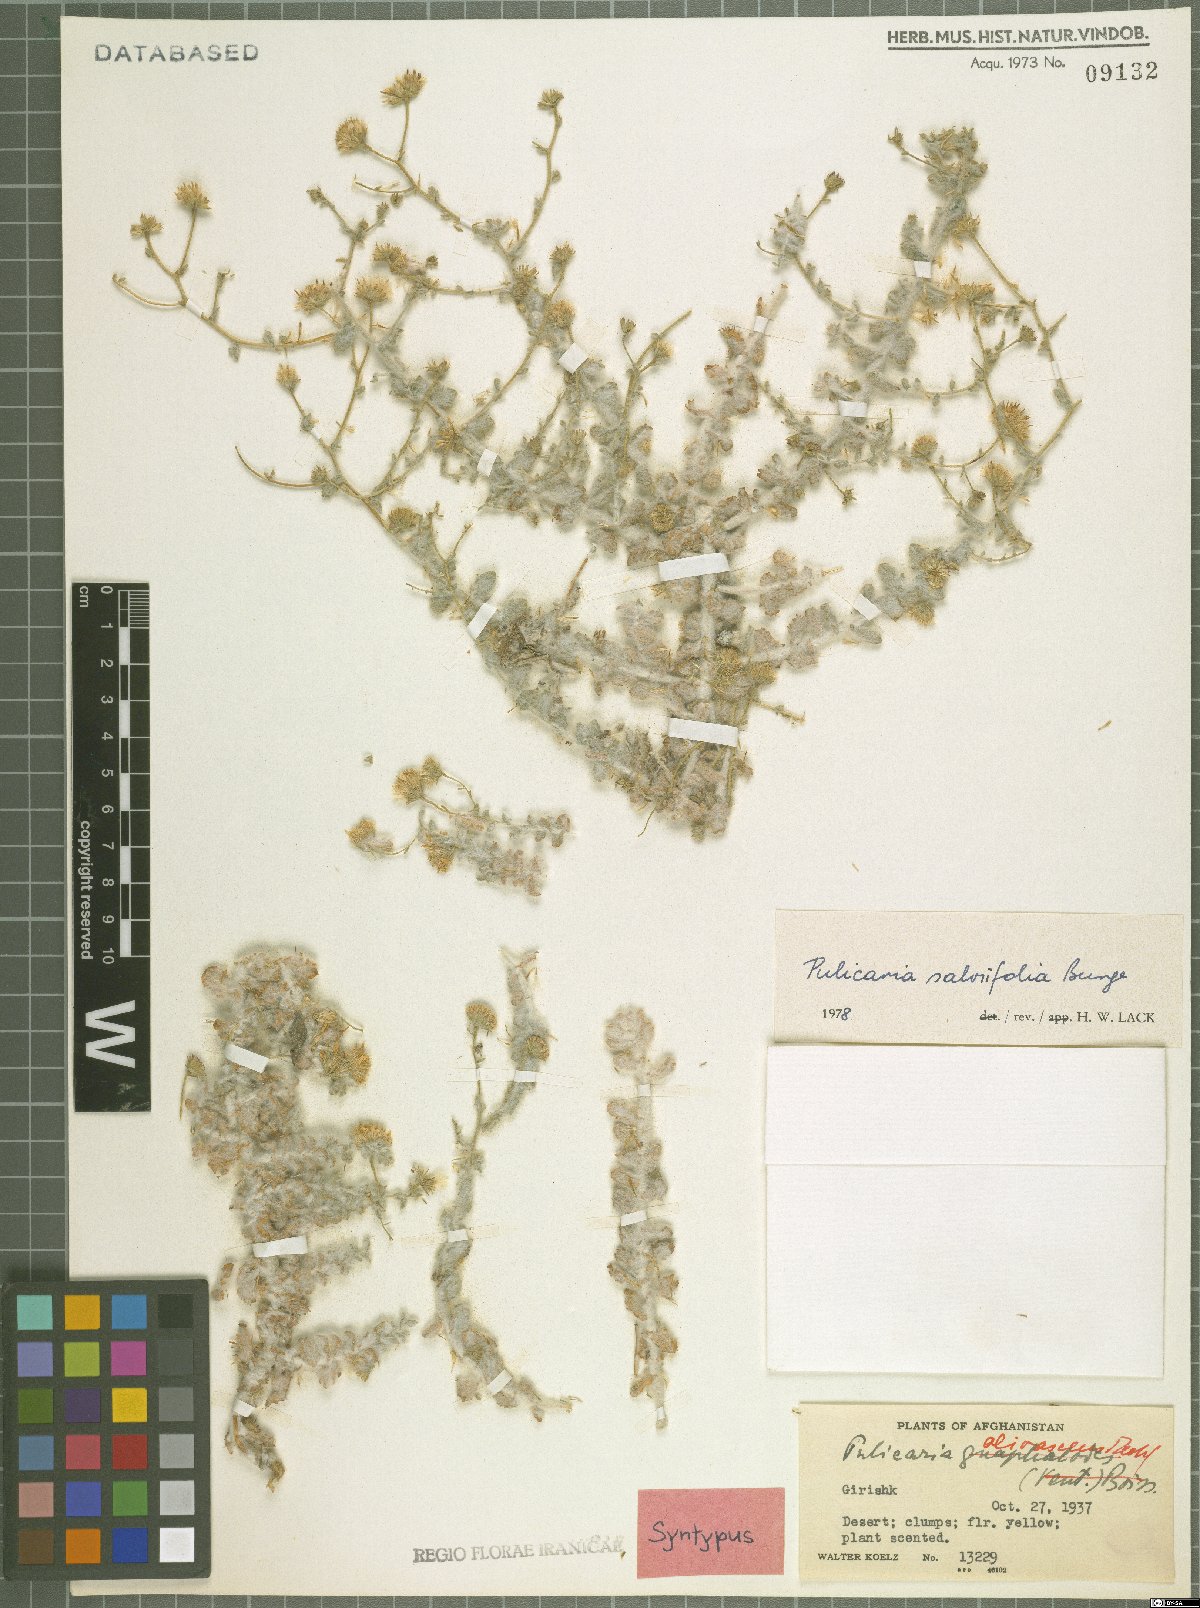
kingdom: Plantae
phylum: Tracheophyta
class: Magnoliopsida
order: Asterales
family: Asteraceae
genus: Pulicaria
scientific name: Pulicaria salviifolia
